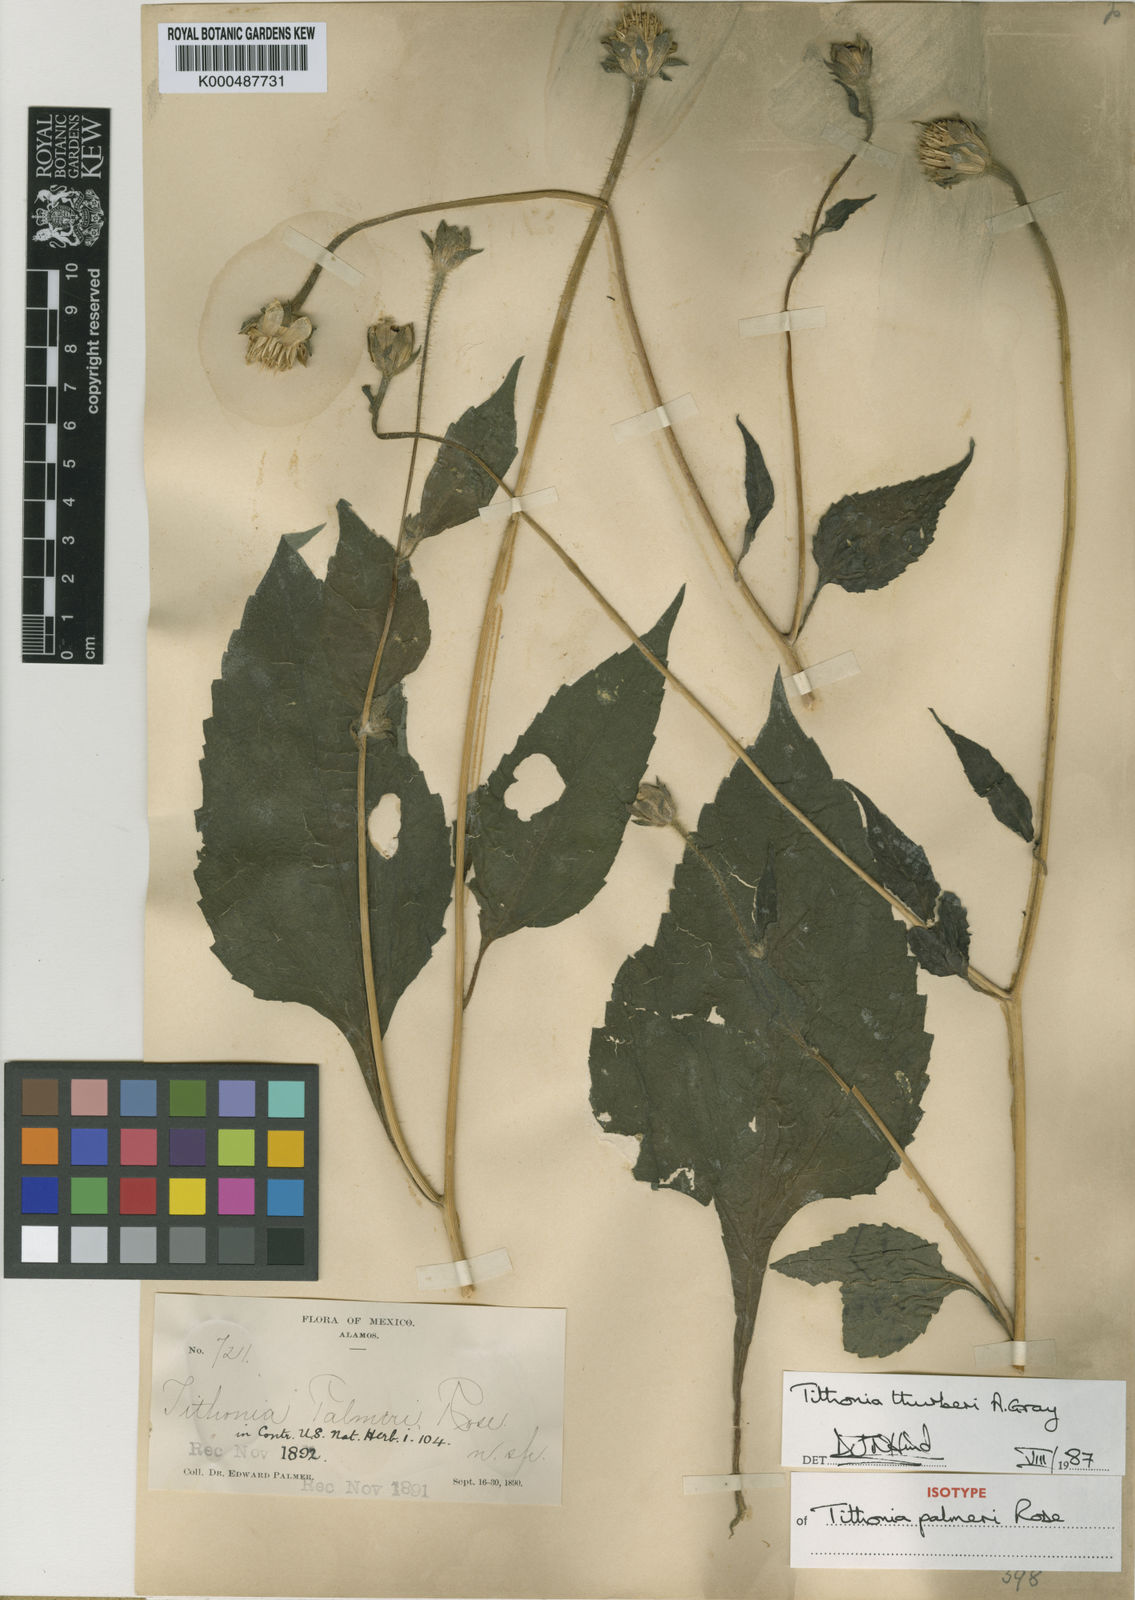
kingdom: Plantae
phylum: Tracheophyta
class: Magnoliopsida
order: Asterales
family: Asteraceae
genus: Tithonia
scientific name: Tithonia thurberi
